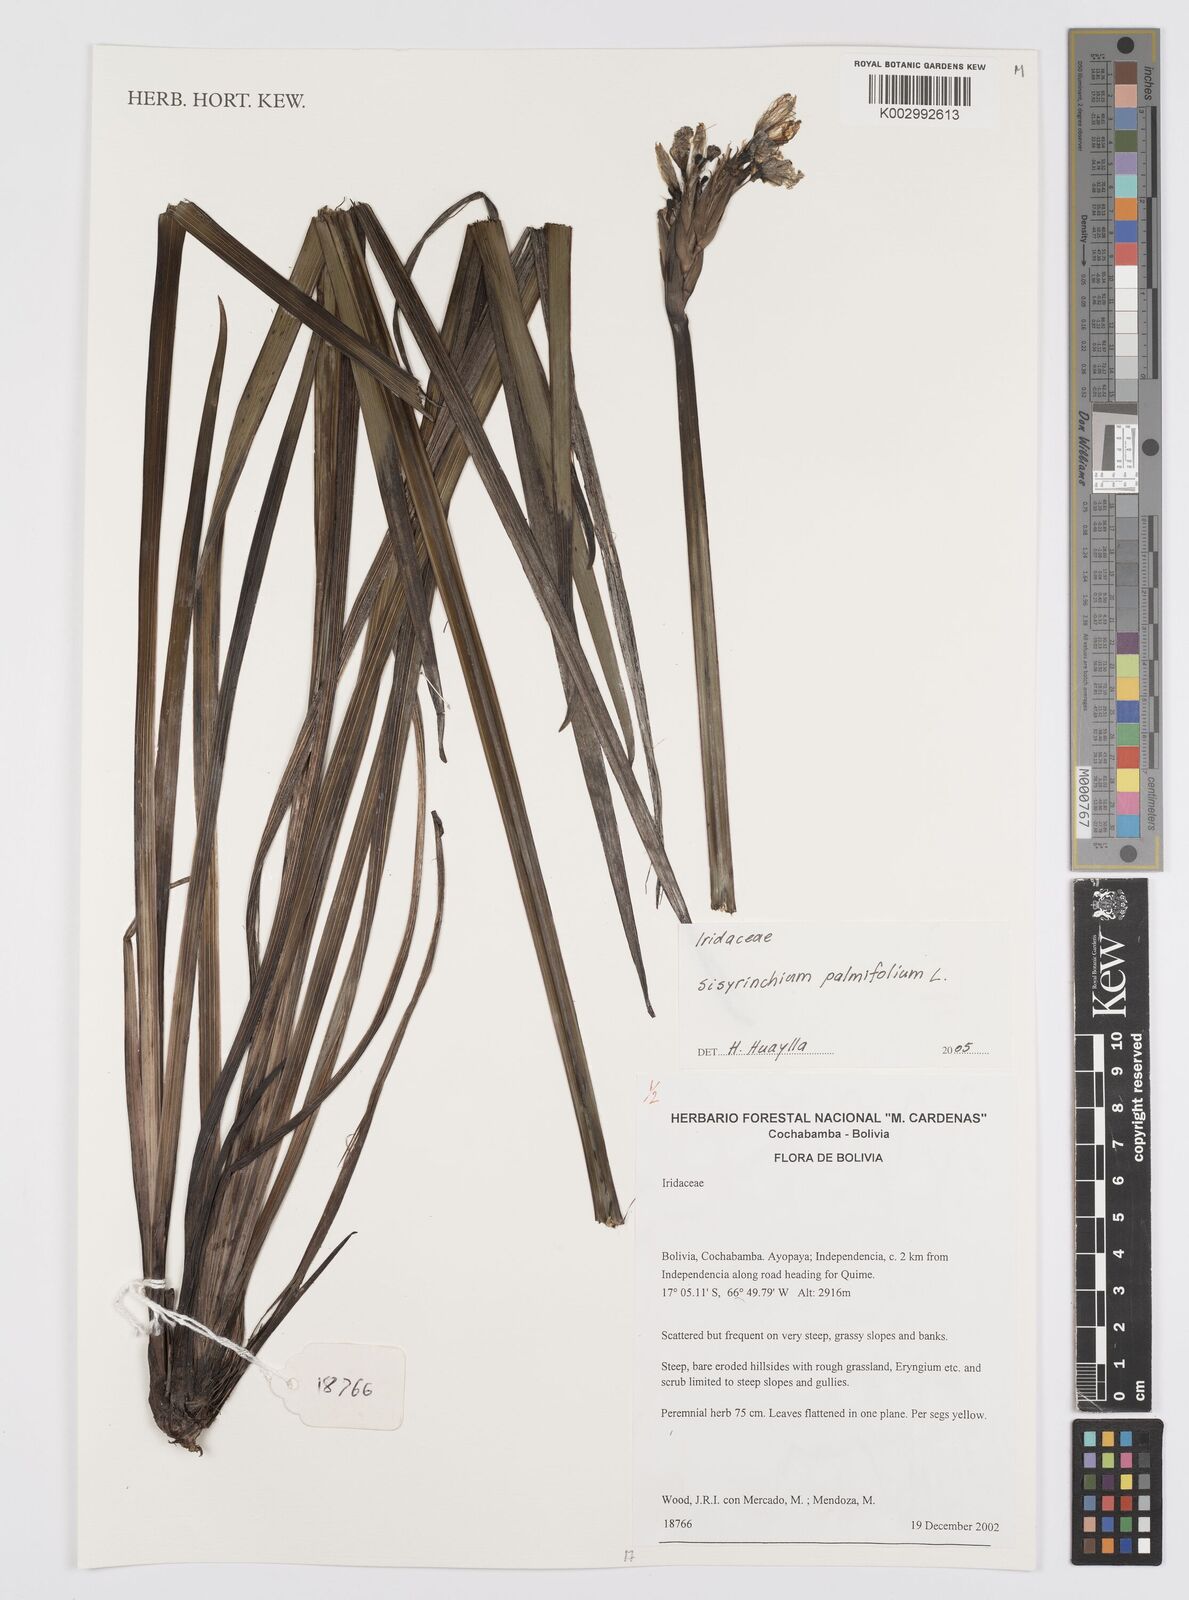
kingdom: Plantae
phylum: Tracheophyta
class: Liliopsida
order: Asparagales
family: Iridaceae
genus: Sisyrinchium
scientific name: Sisyrinchium palmifolium
